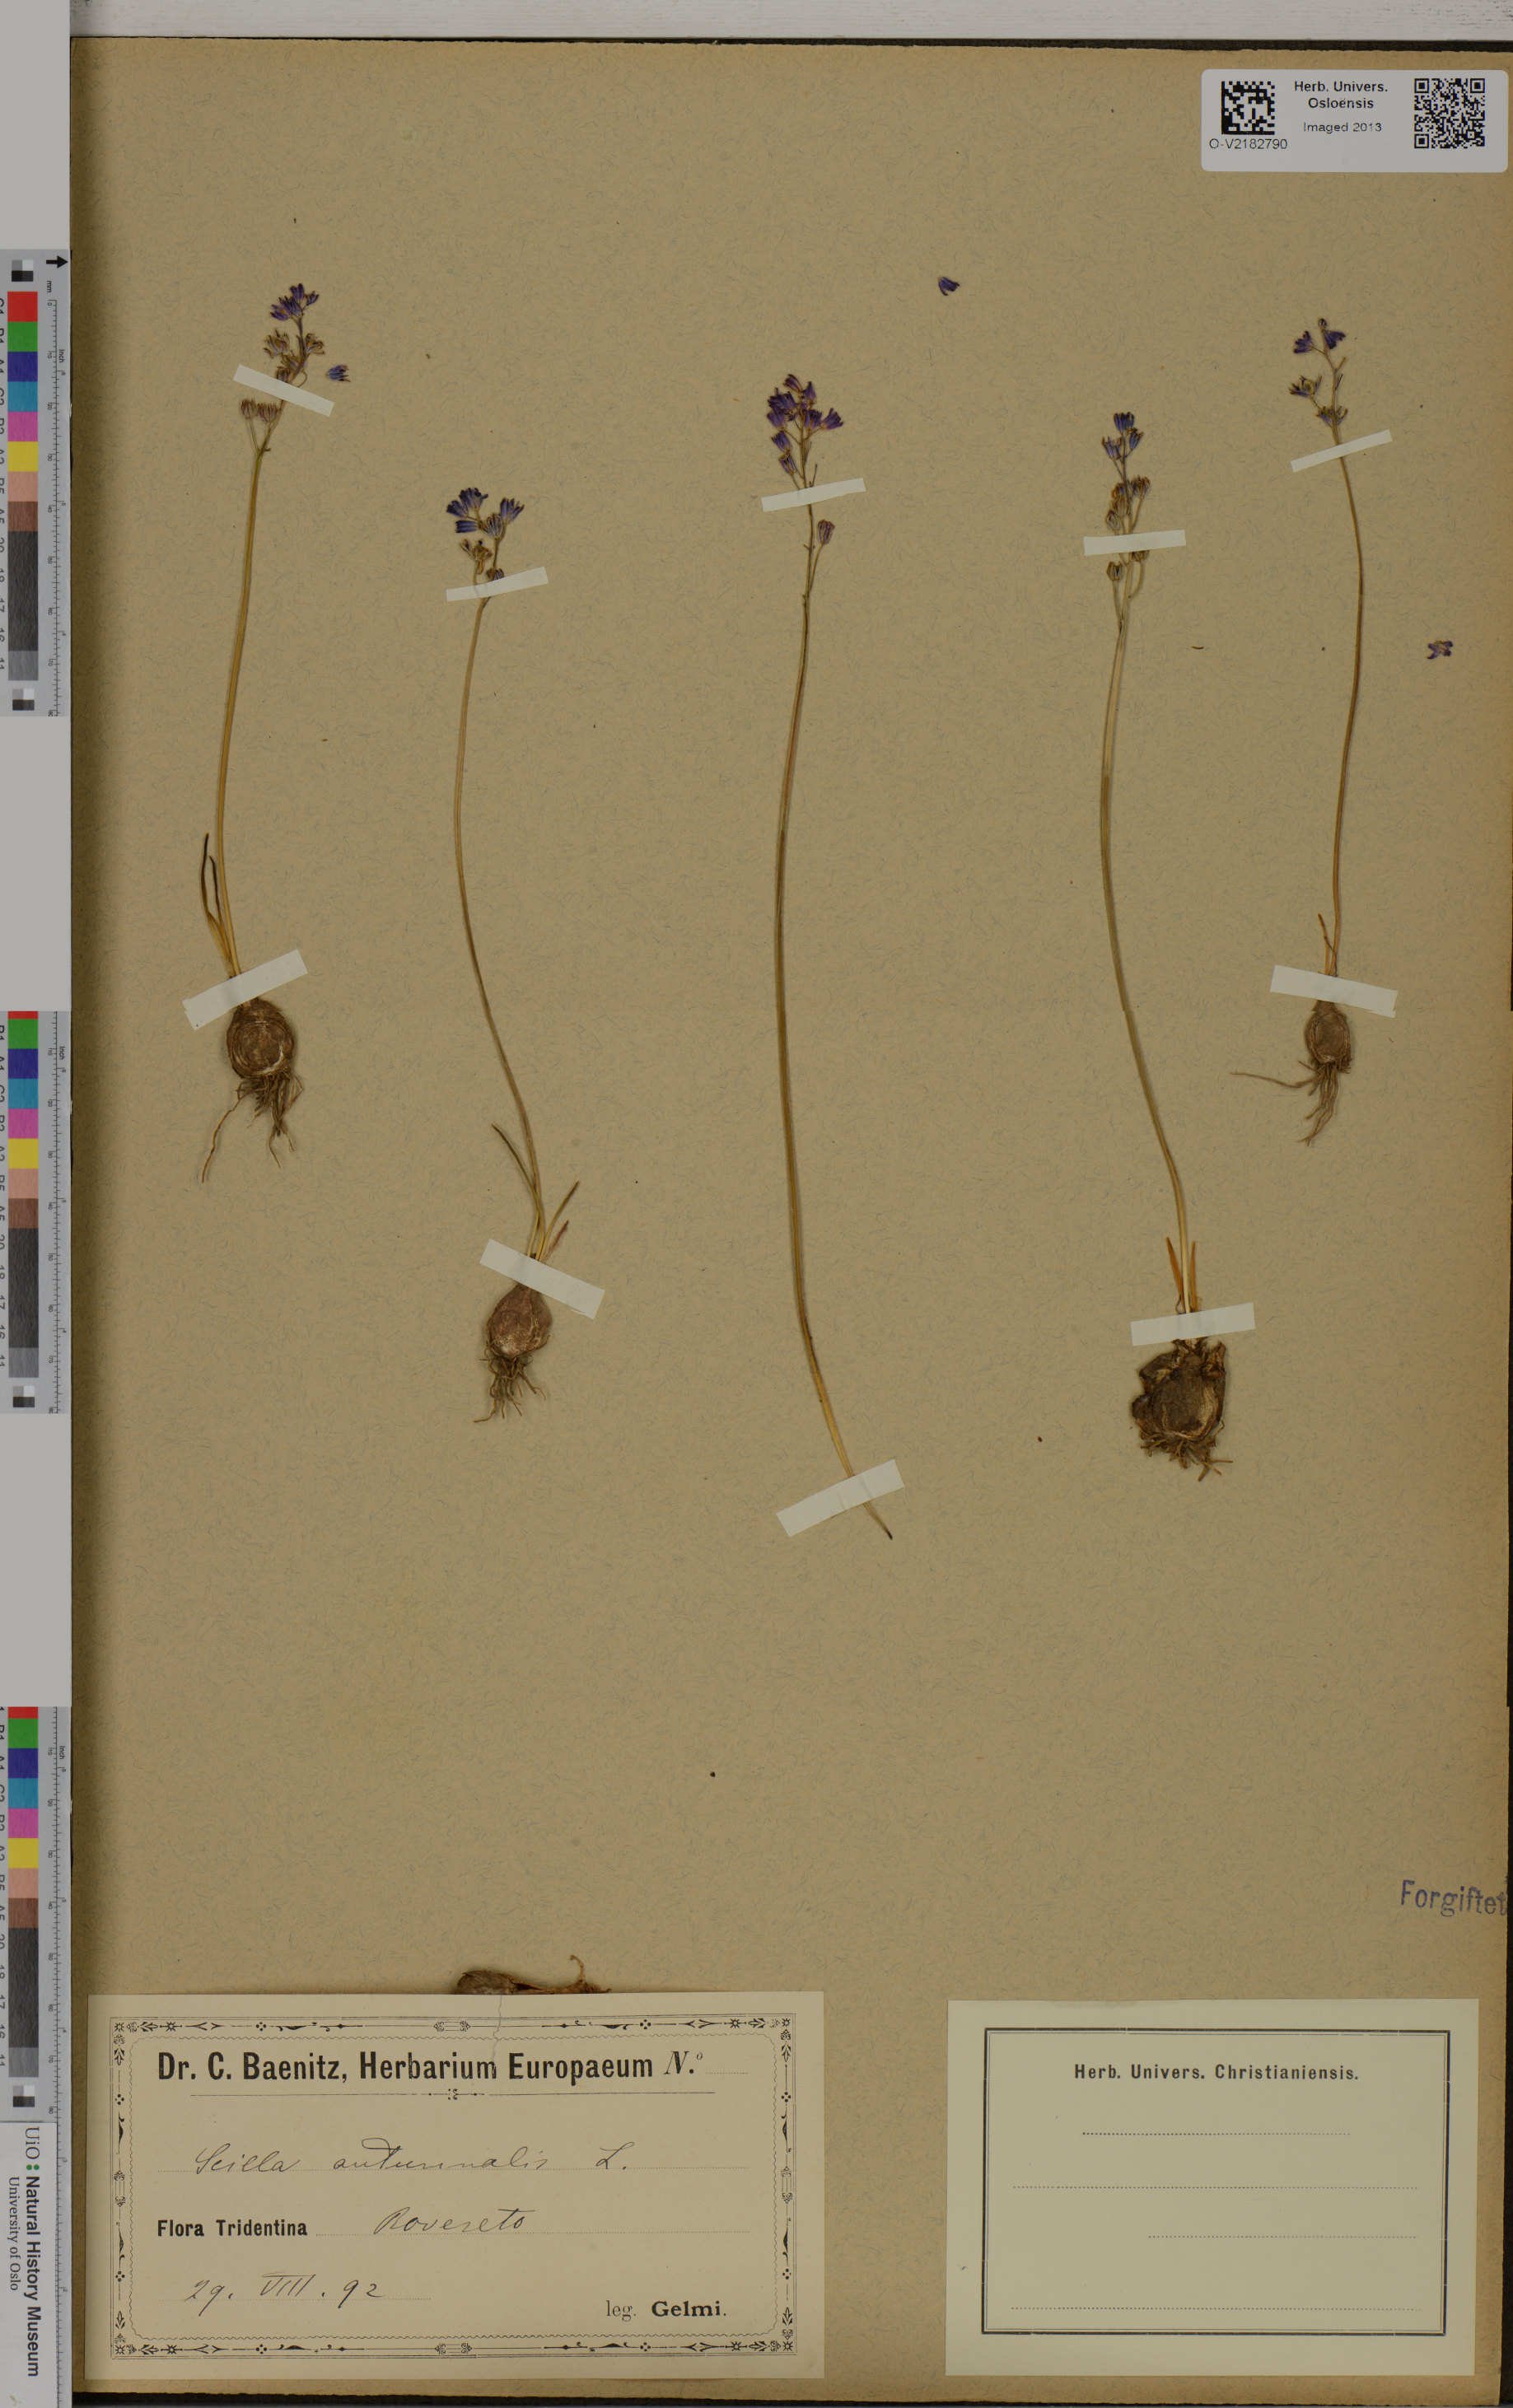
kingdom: Plantae
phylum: Tracheophyta
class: Liliopsida
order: Asparagales
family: Asparagaceae
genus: Scilla
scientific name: Scilla autumnalis
